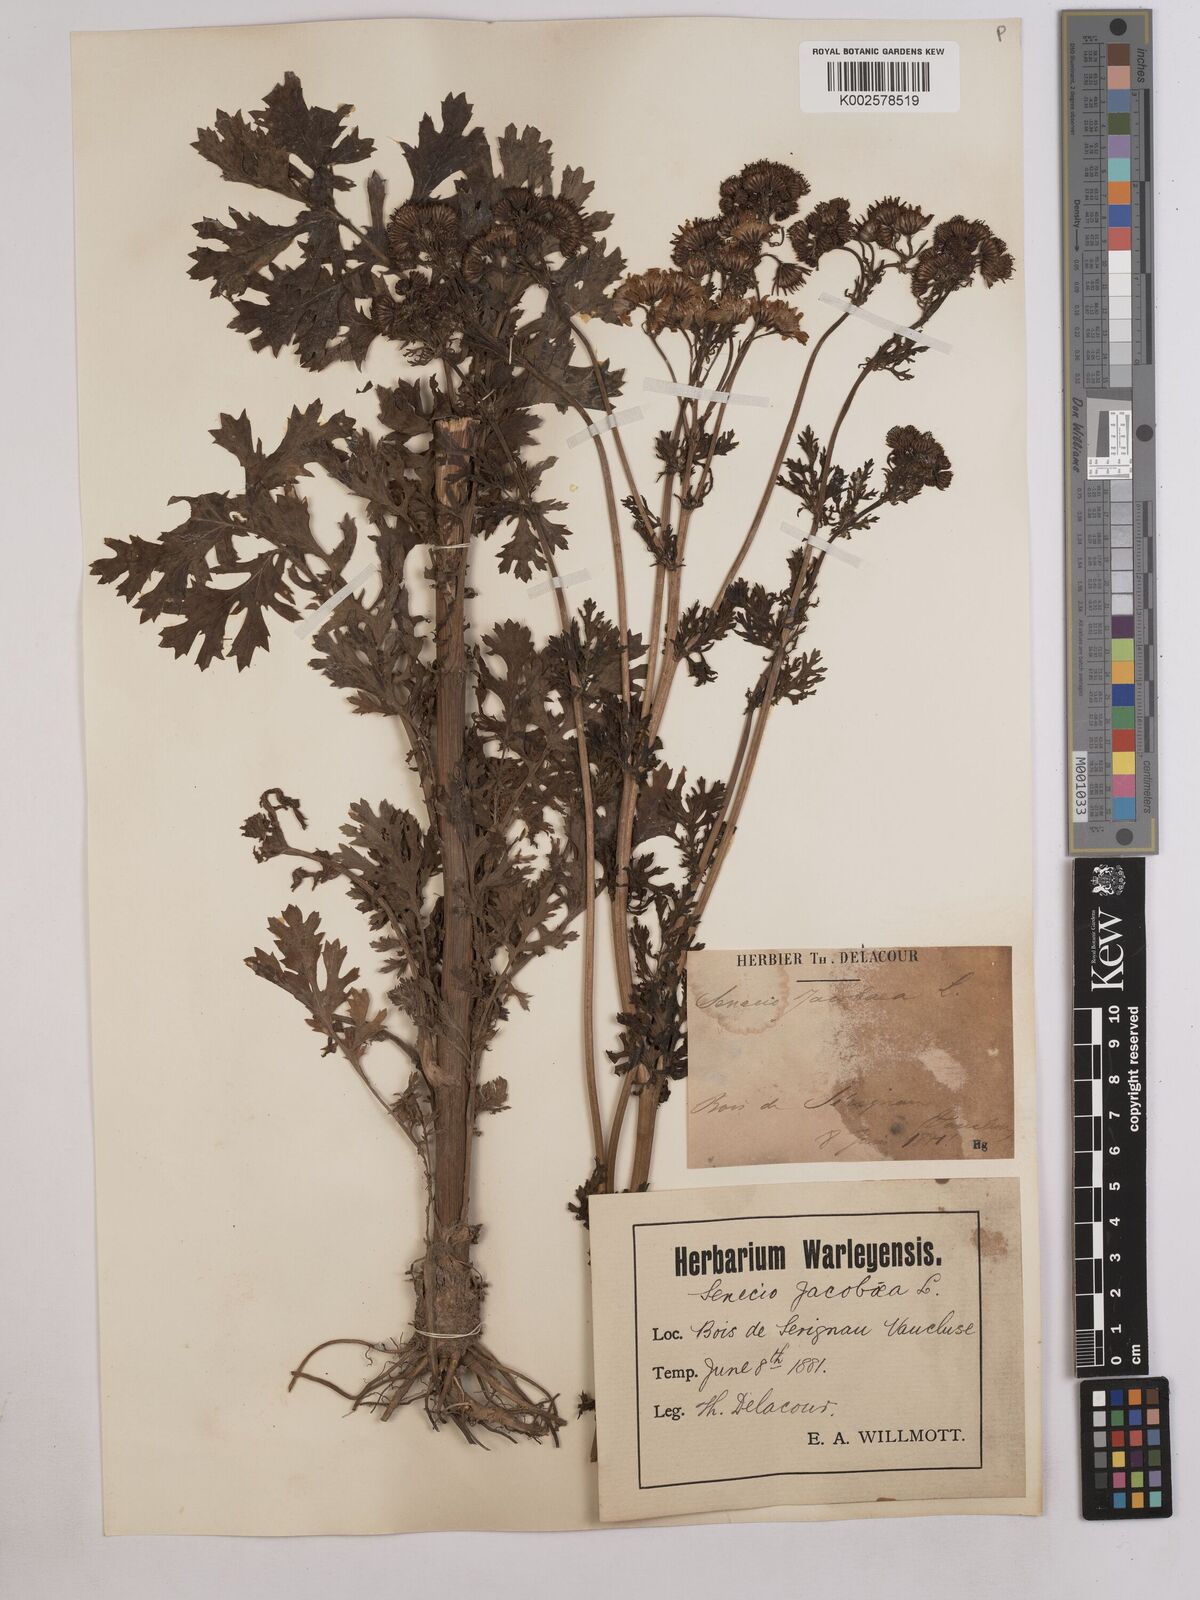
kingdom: Plantae
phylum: Tracheophyta
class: Magnoliopsida
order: Asterales
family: Asteraceae
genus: Jacobaea
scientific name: Jacobaea vulgaris
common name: Stinking willie
